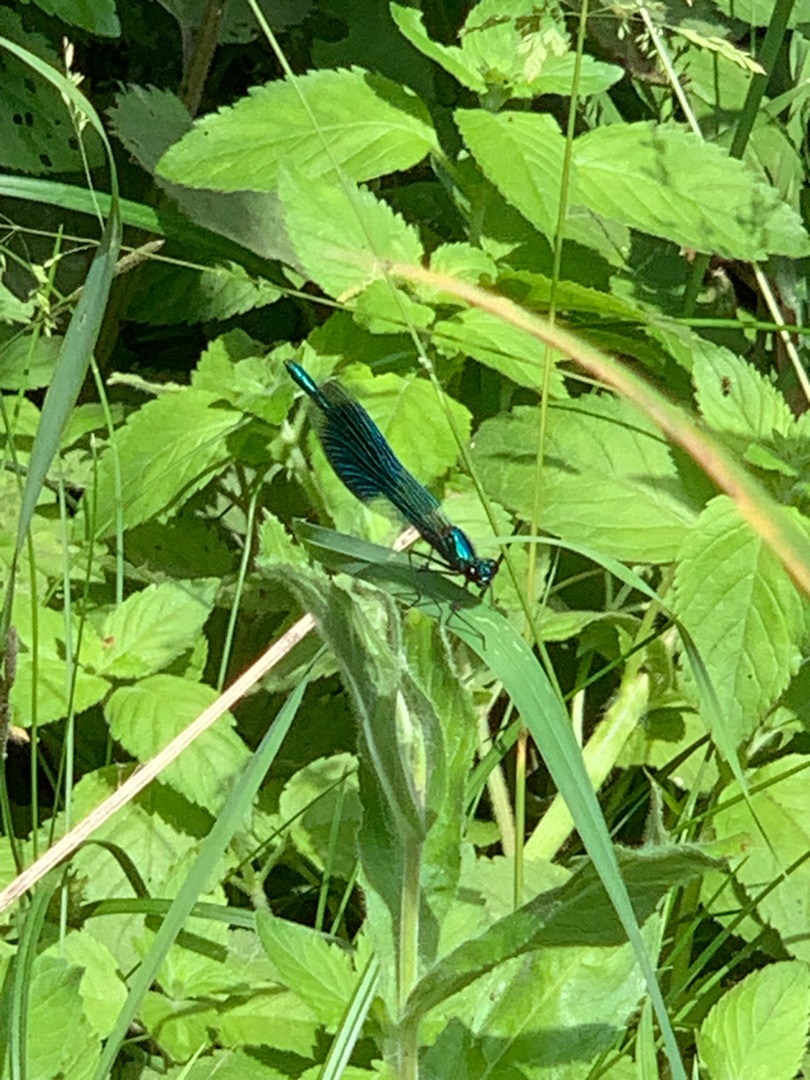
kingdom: Animalia
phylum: Arthropoda
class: Insecta
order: Odonata
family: Calopterygidae
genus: Calopteryx
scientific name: Calopteryx splendens
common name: Blåbåndet pragtvandnymfe
